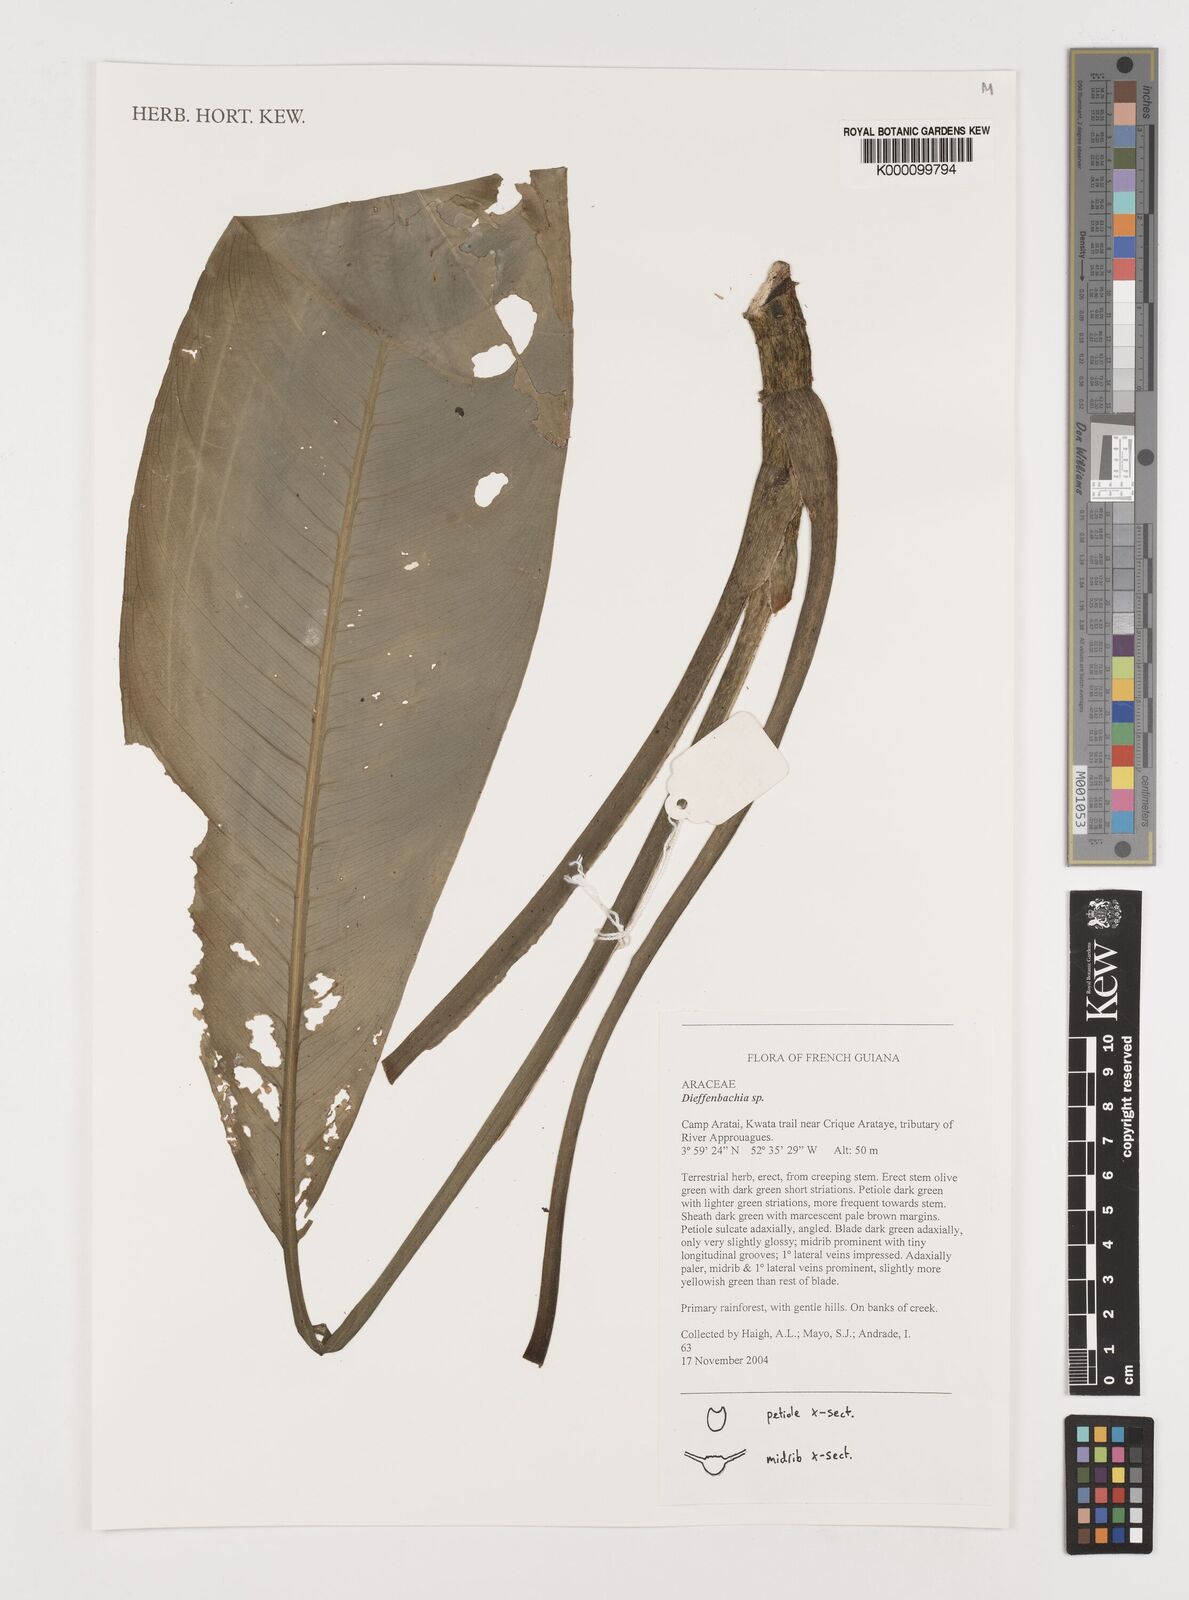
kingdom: Plantae
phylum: Tracheophyta
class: Liliopsida
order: Alismatales
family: Araceae
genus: Dieffenbachia
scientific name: Dieffenbachia
